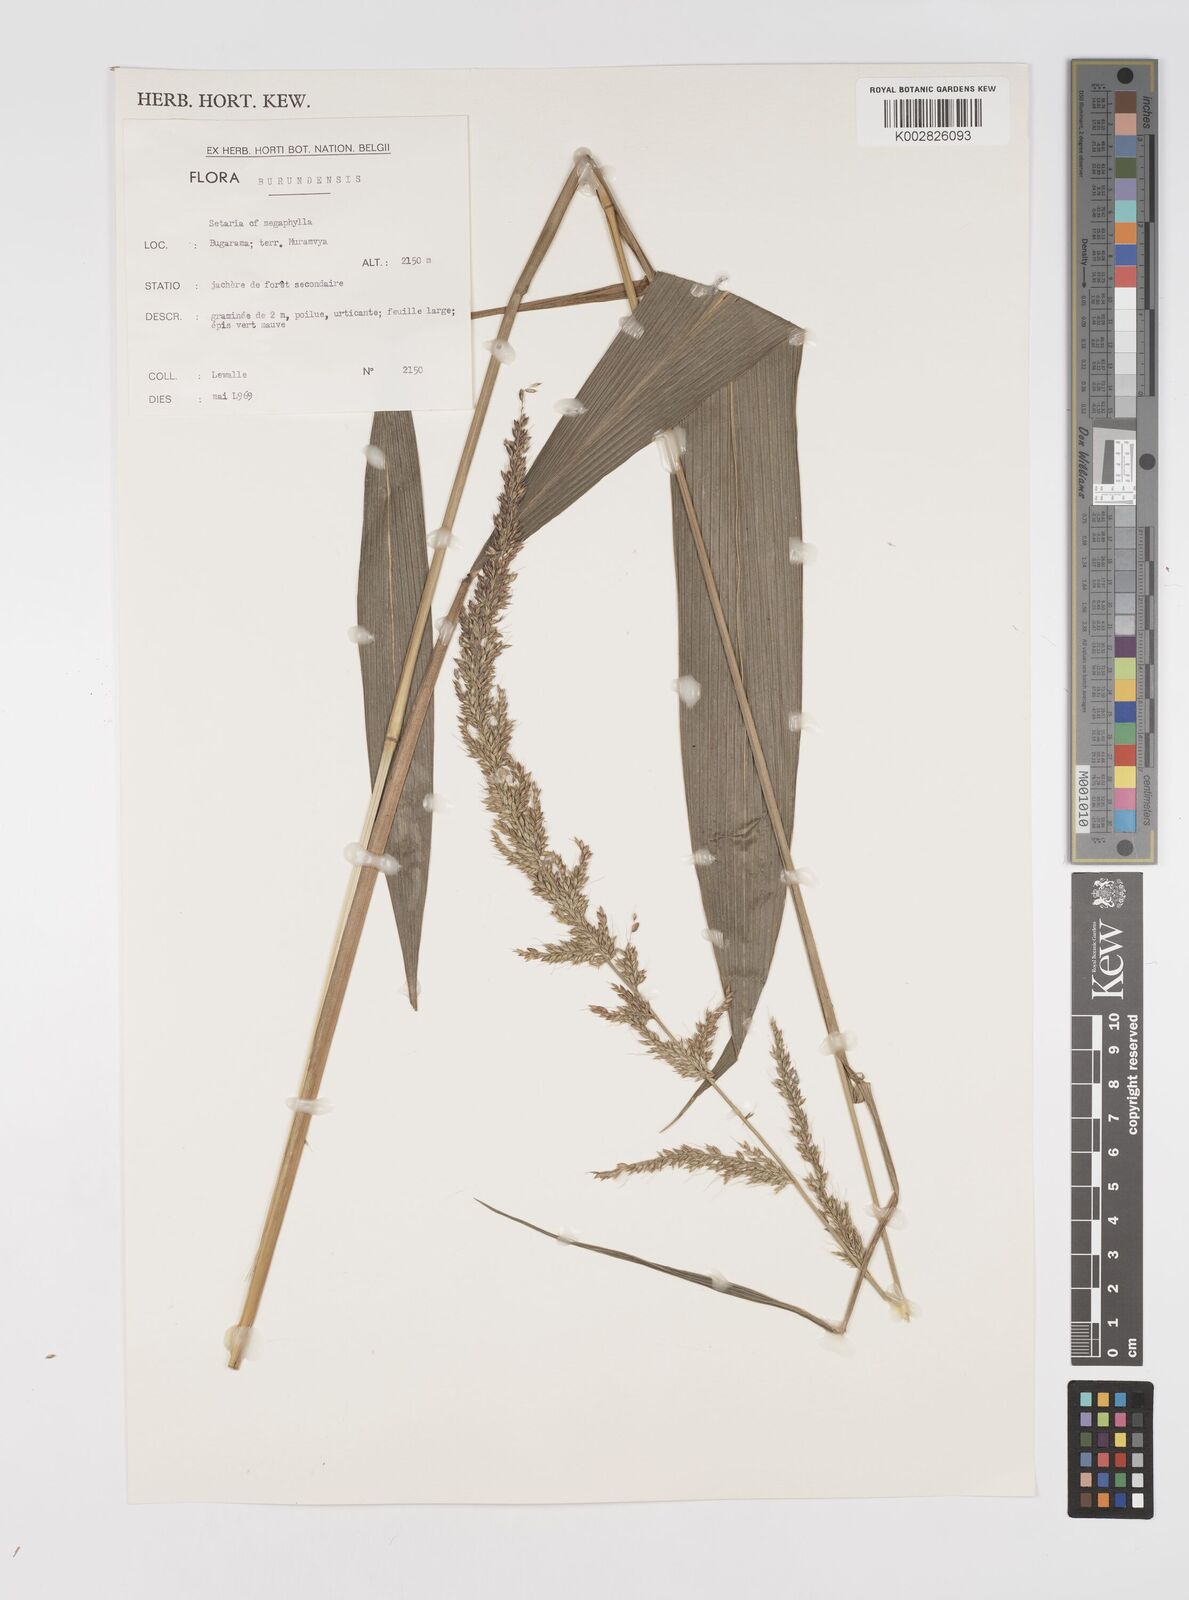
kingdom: Plantae
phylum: Tracheophyta
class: Liliopsida
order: Poales
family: Poaceae
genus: Setaria
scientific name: Setaria poiretiana
